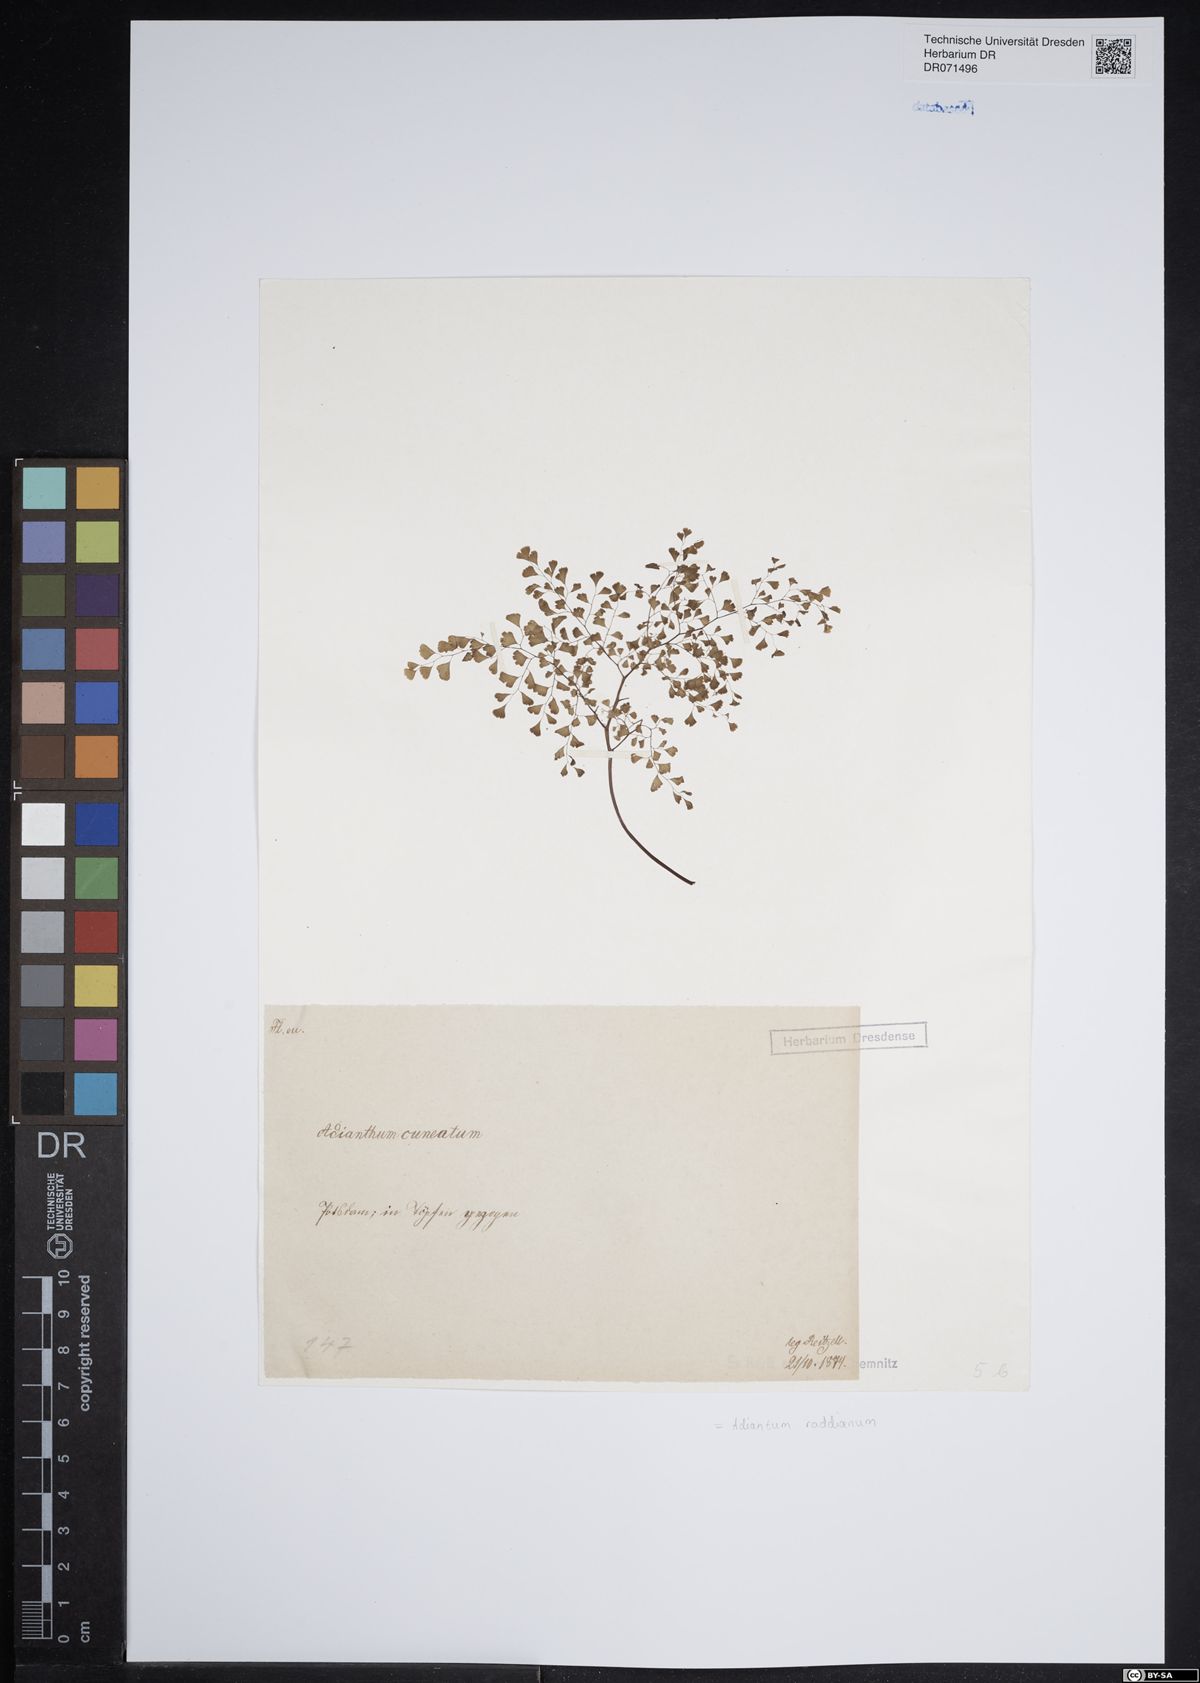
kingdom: Plantae
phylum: Tracheophyta
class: Polypodiopsida
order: Polypodiales
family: Pteridaceae
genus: Adiantum
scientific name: Adiantum raddianum
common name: Delta maidenhair fern
